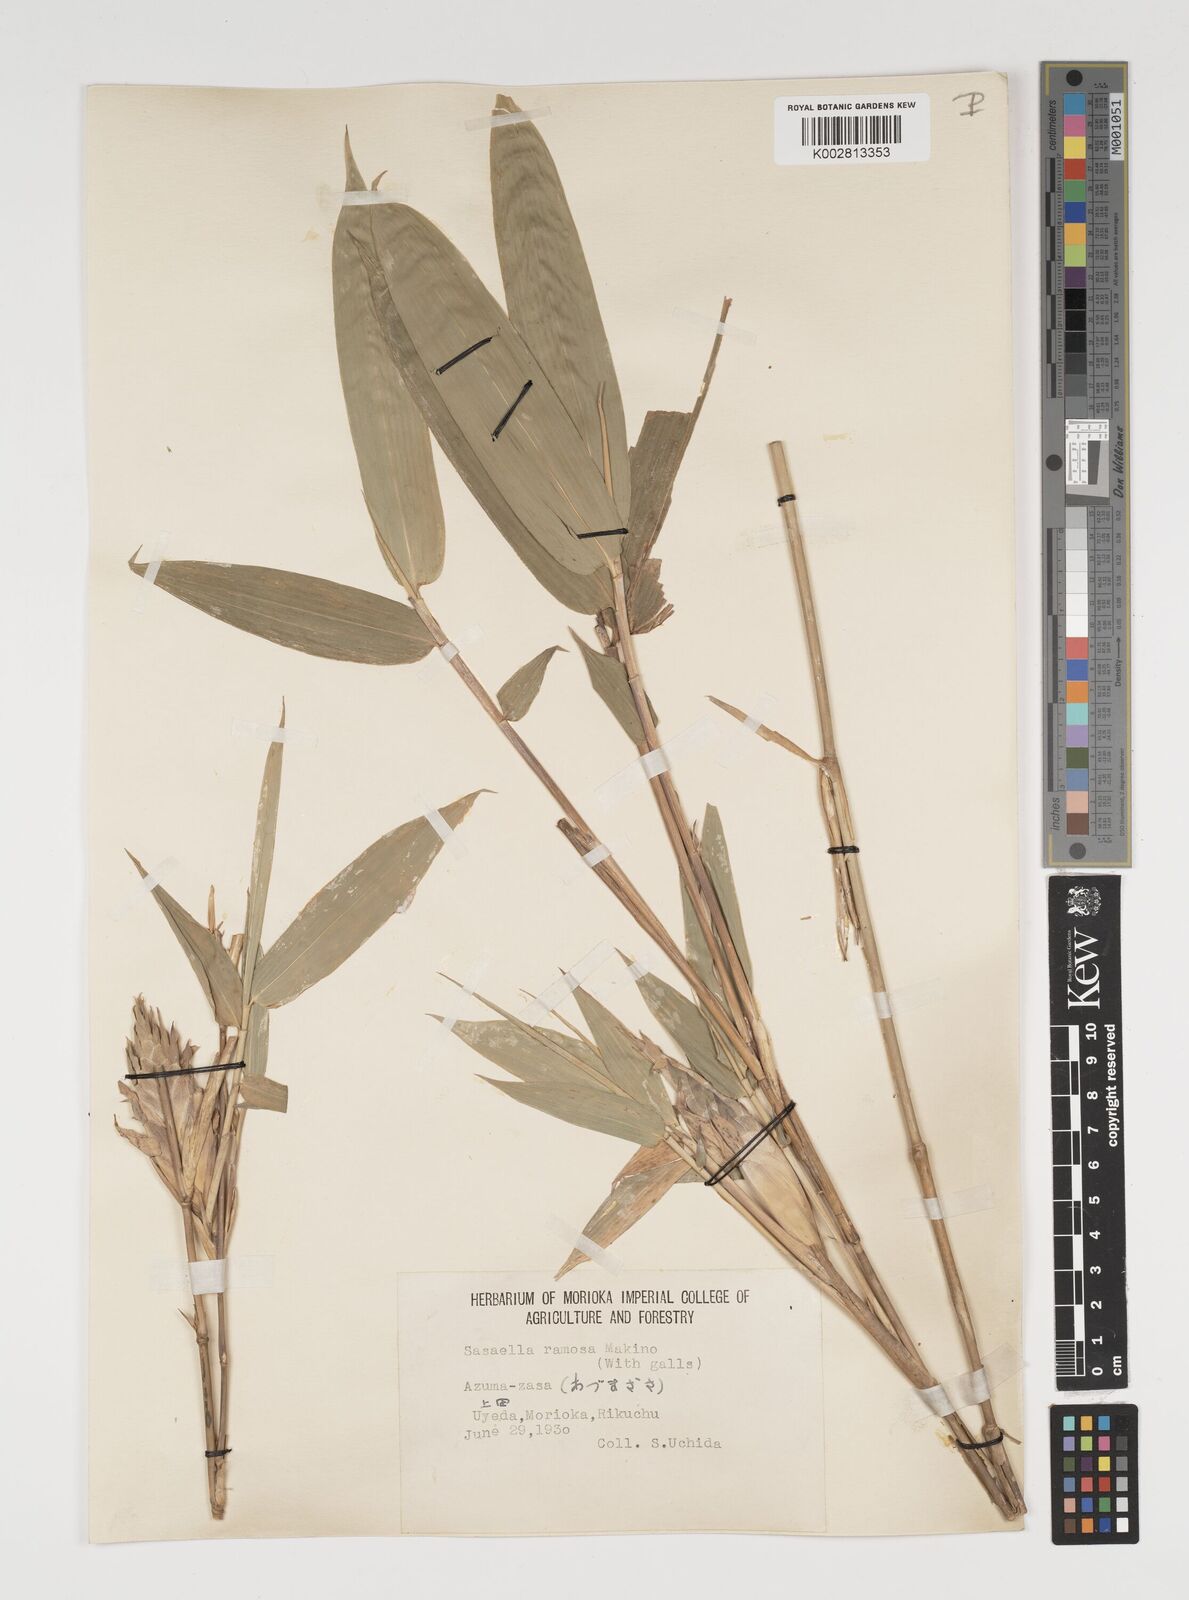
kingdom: Plantae
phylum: Tracheophyta
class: Liliopsida
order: Poales
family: Poaceae
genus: Sasaella
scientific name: Sasaella ramosa
